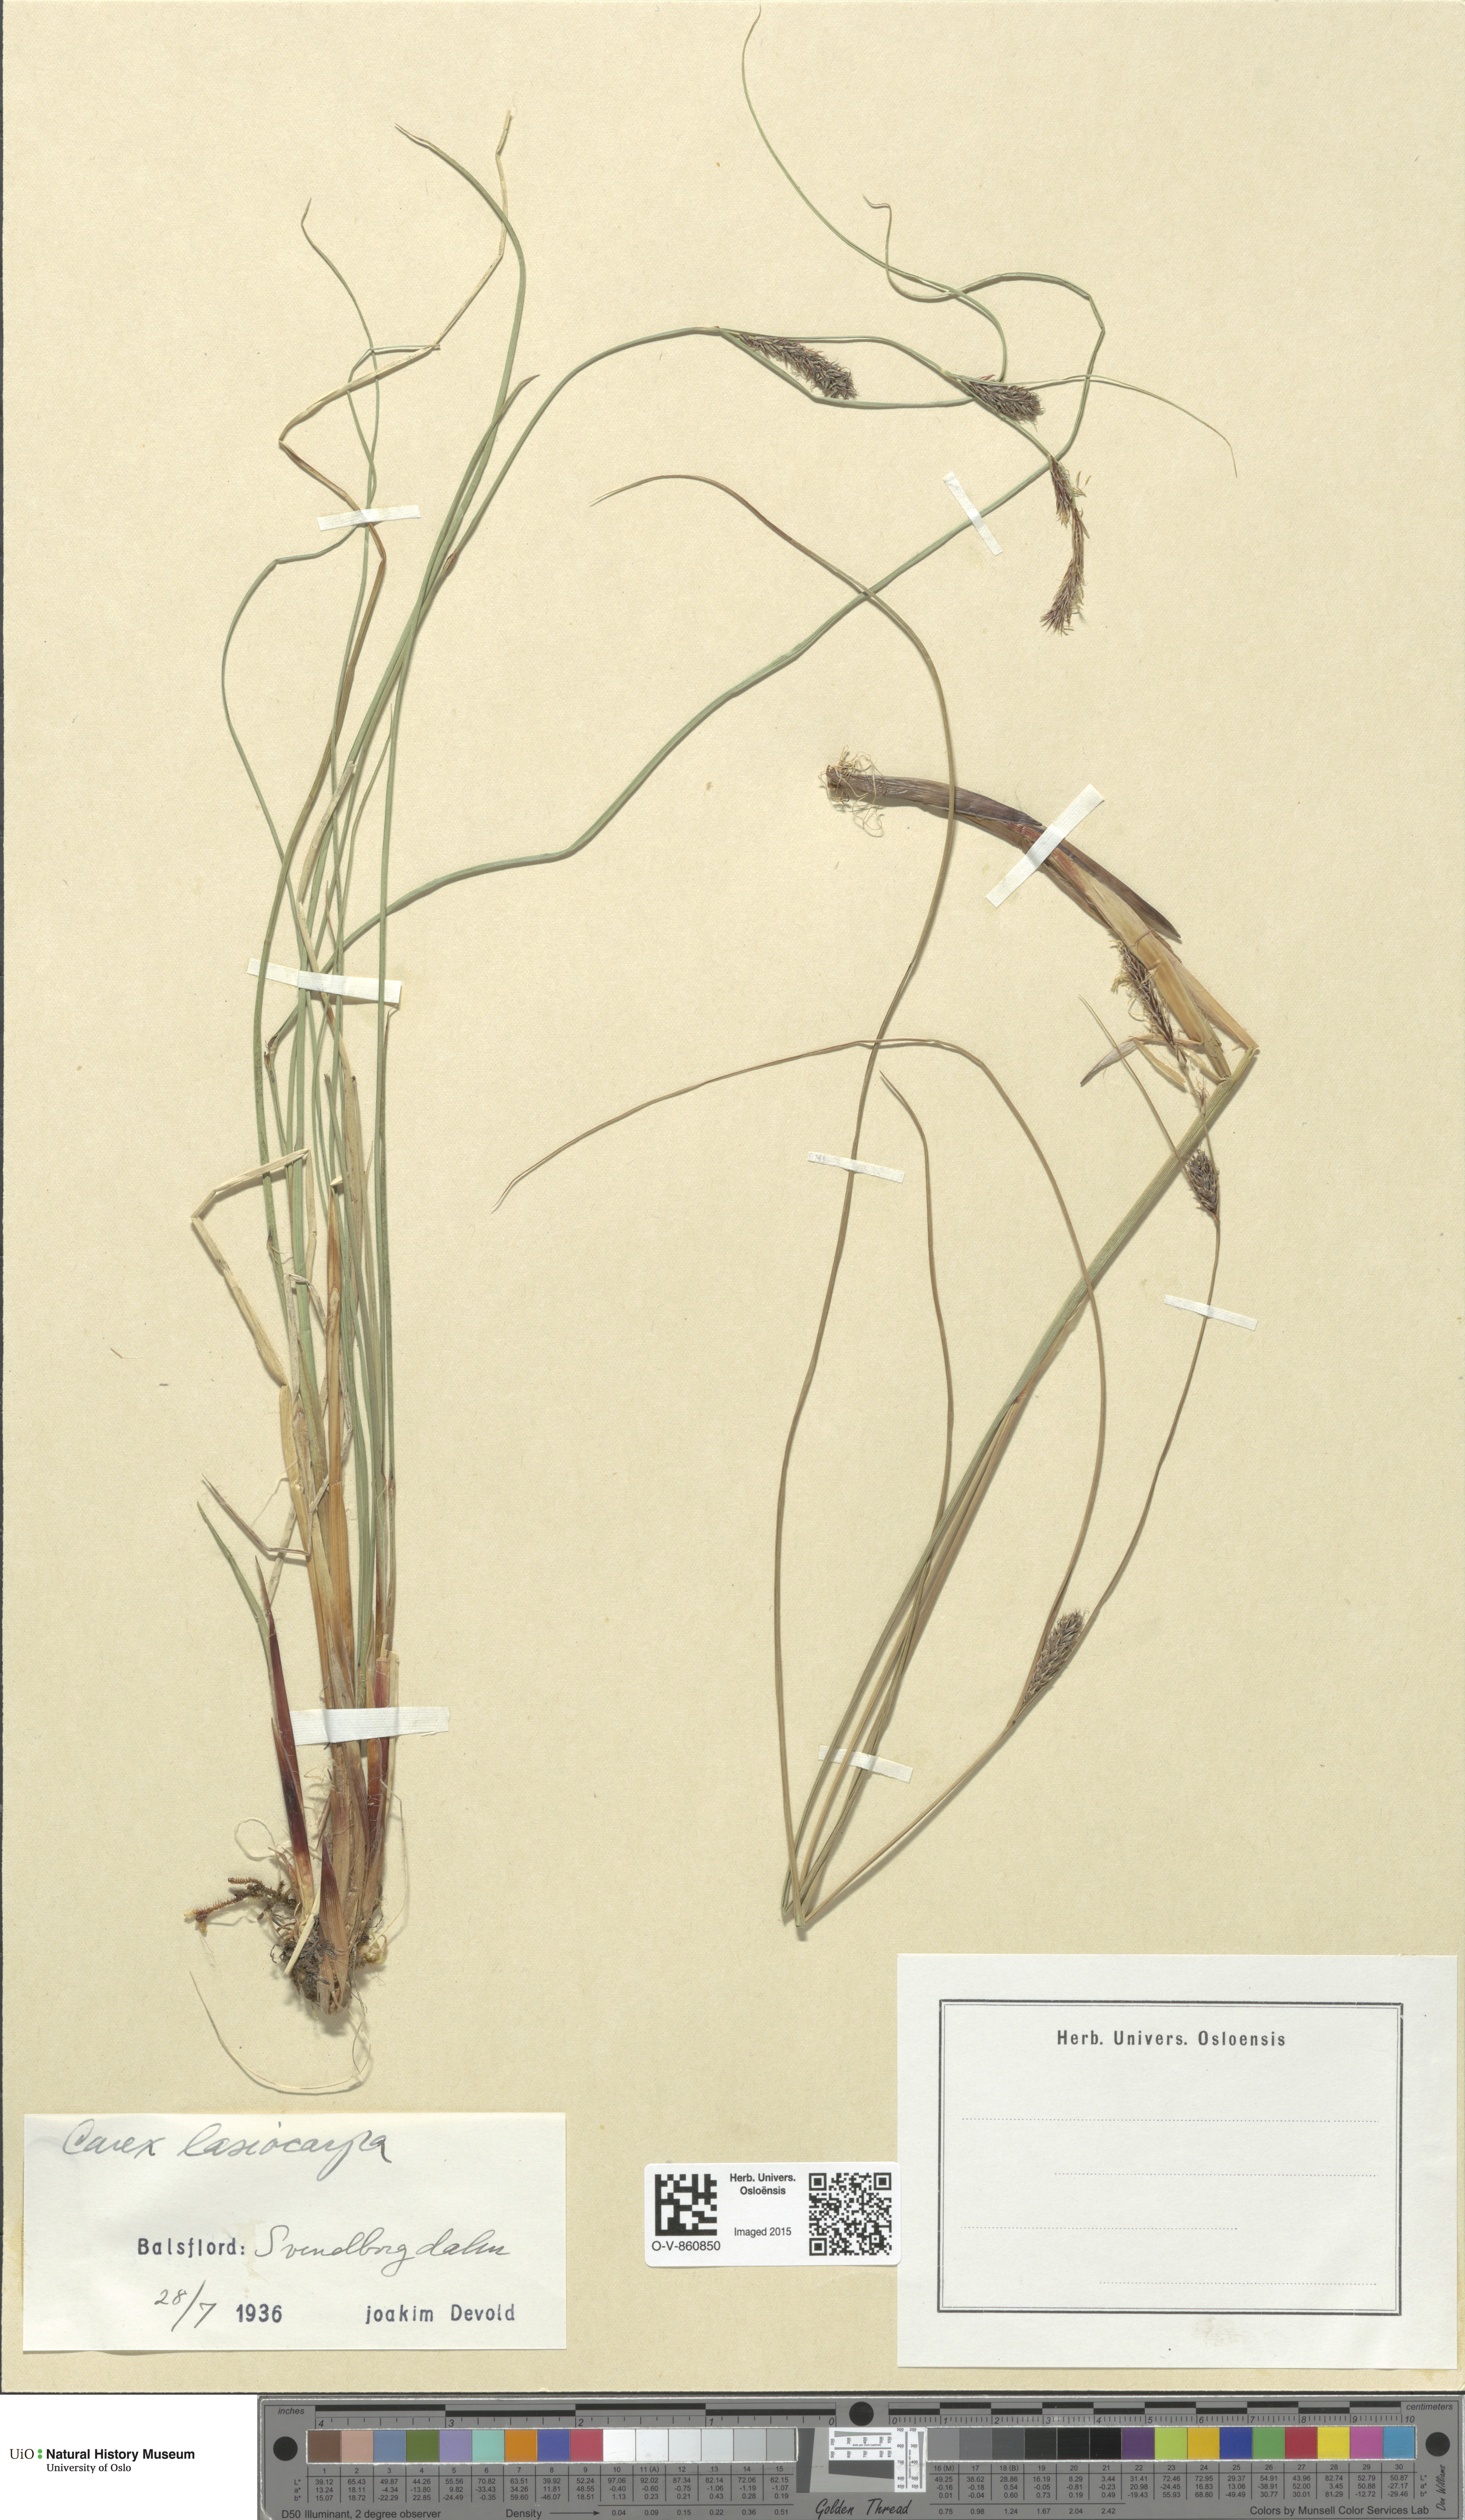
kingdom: Plantae
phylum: Tracheophyta
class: Liliopsida
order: Poales
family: Cyperaceae
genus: Carex
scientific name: Carex lasiocarpa
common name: Slender sedge
